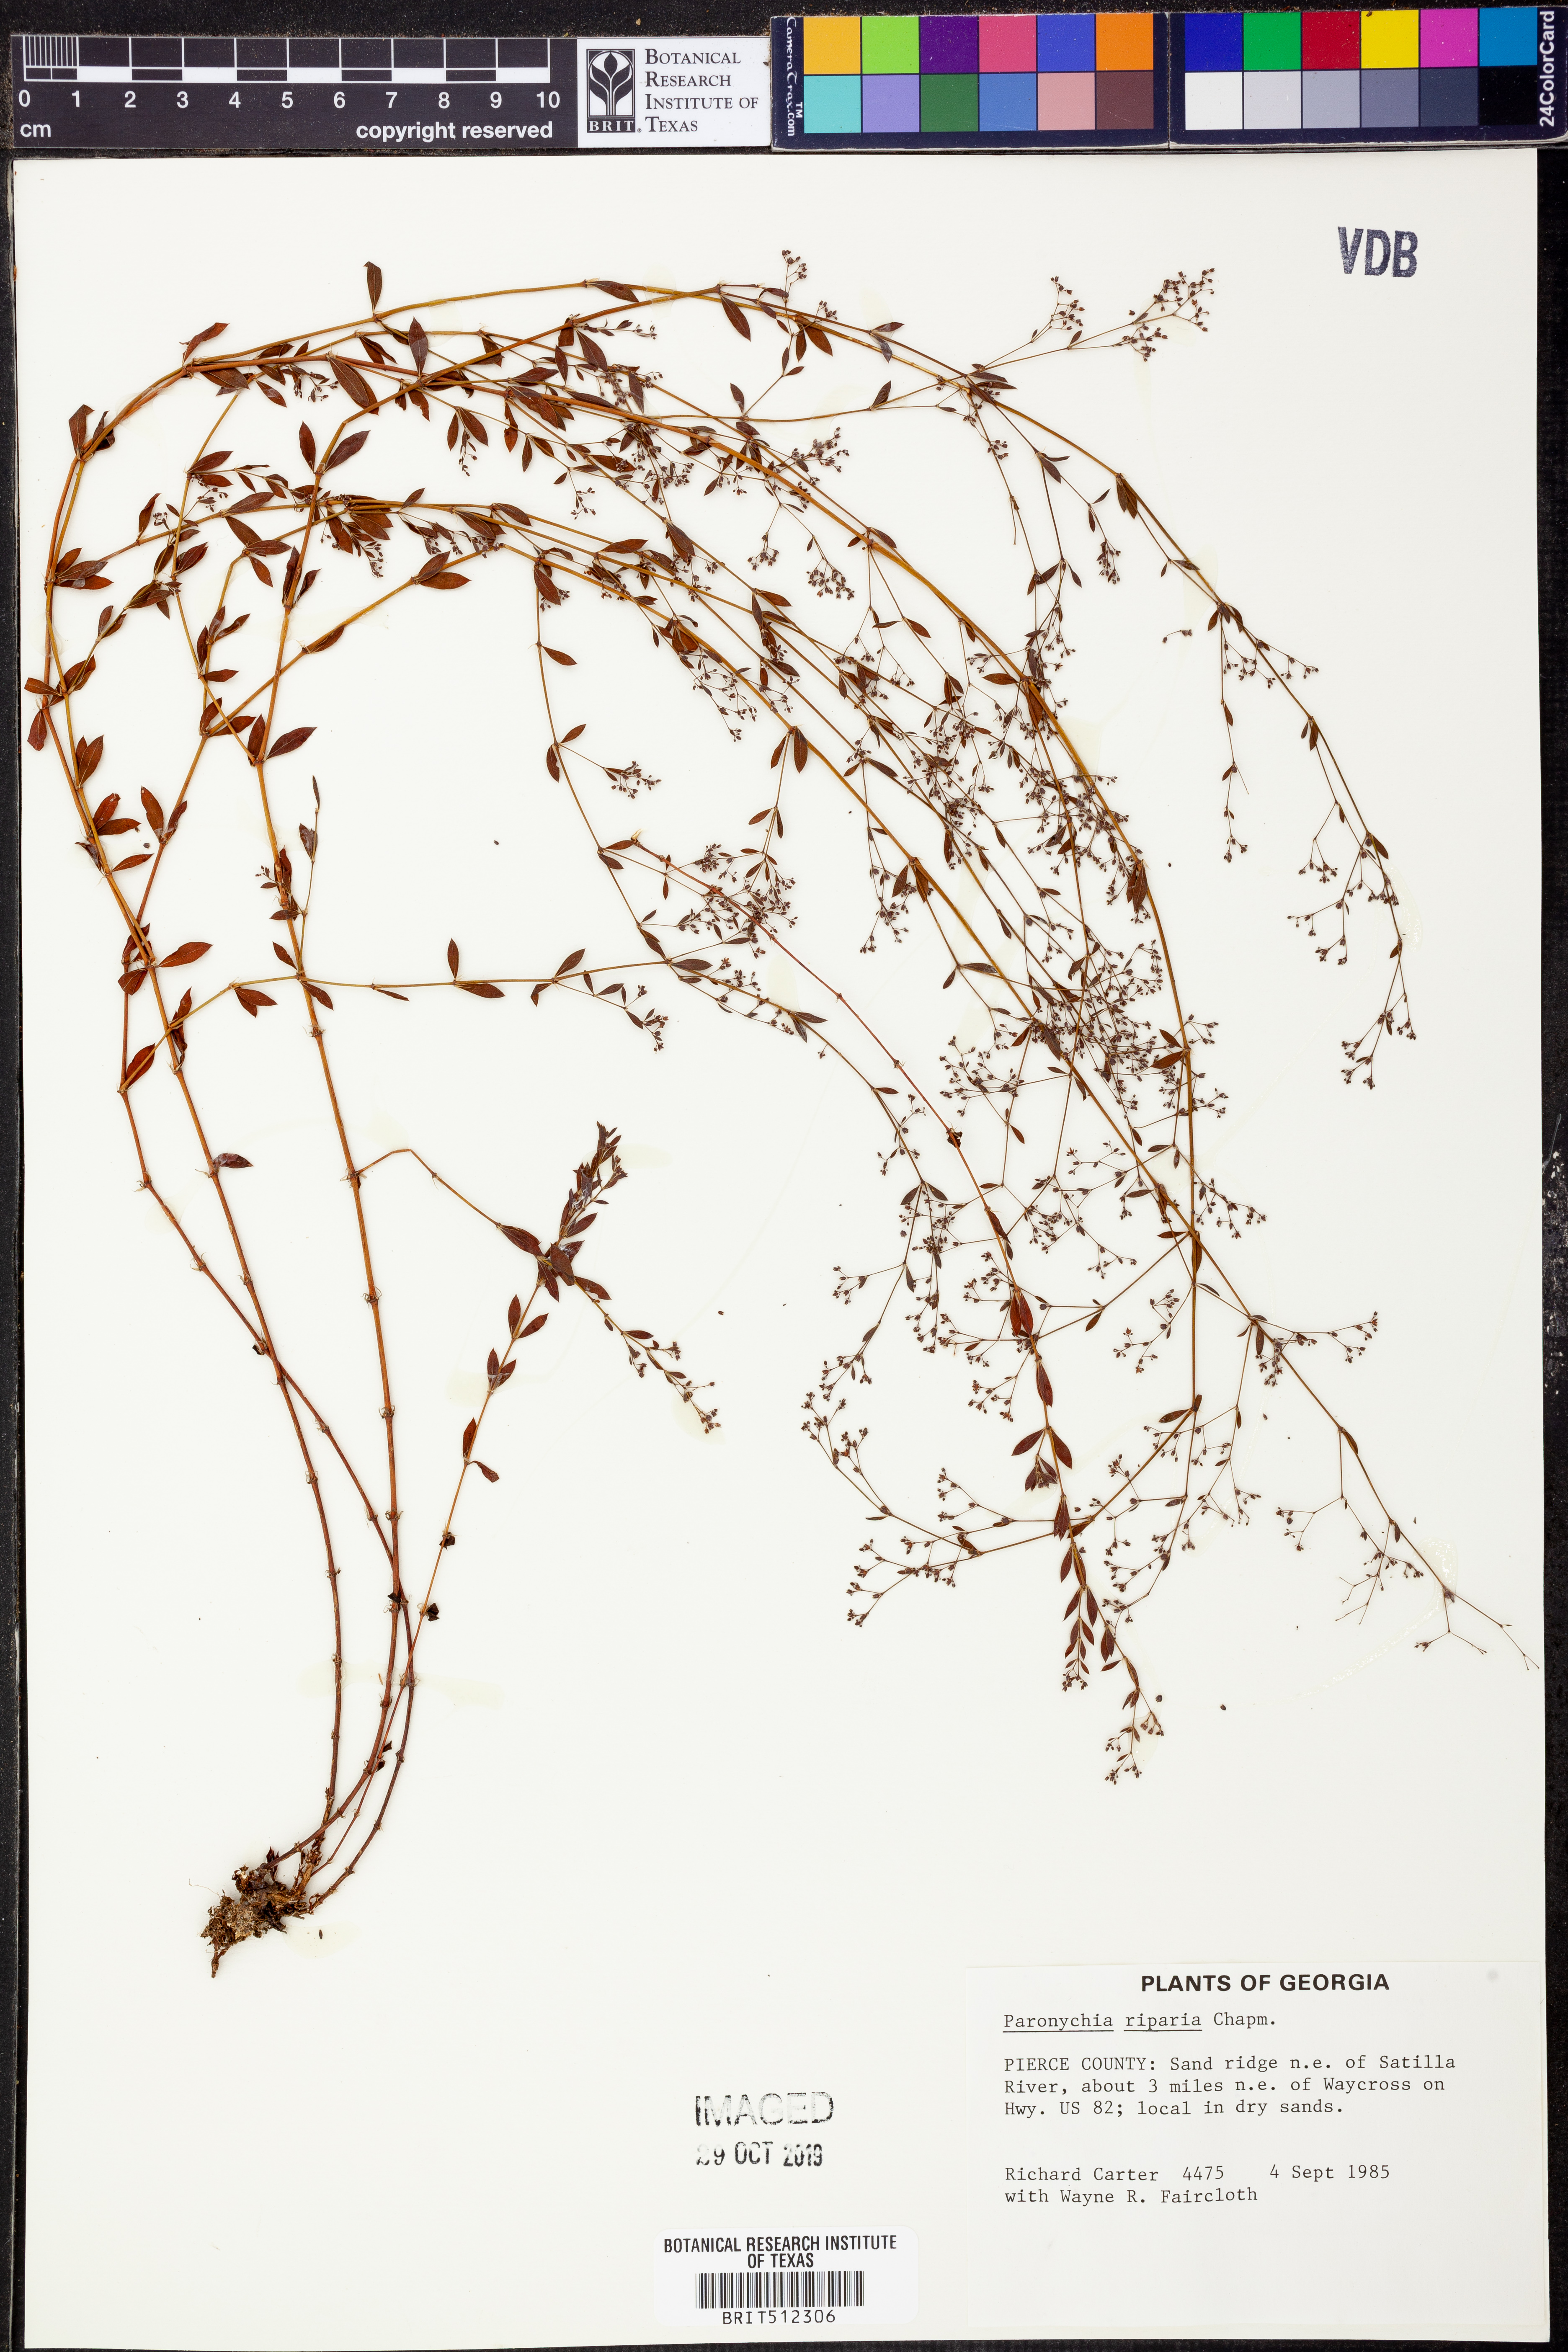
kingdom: Plantae
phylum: Tracheophyta
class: Magnoliopsida
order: Caryophyllales
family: Caryophyllaceae
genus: Paronychia
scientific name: Paronychia baldwinii
